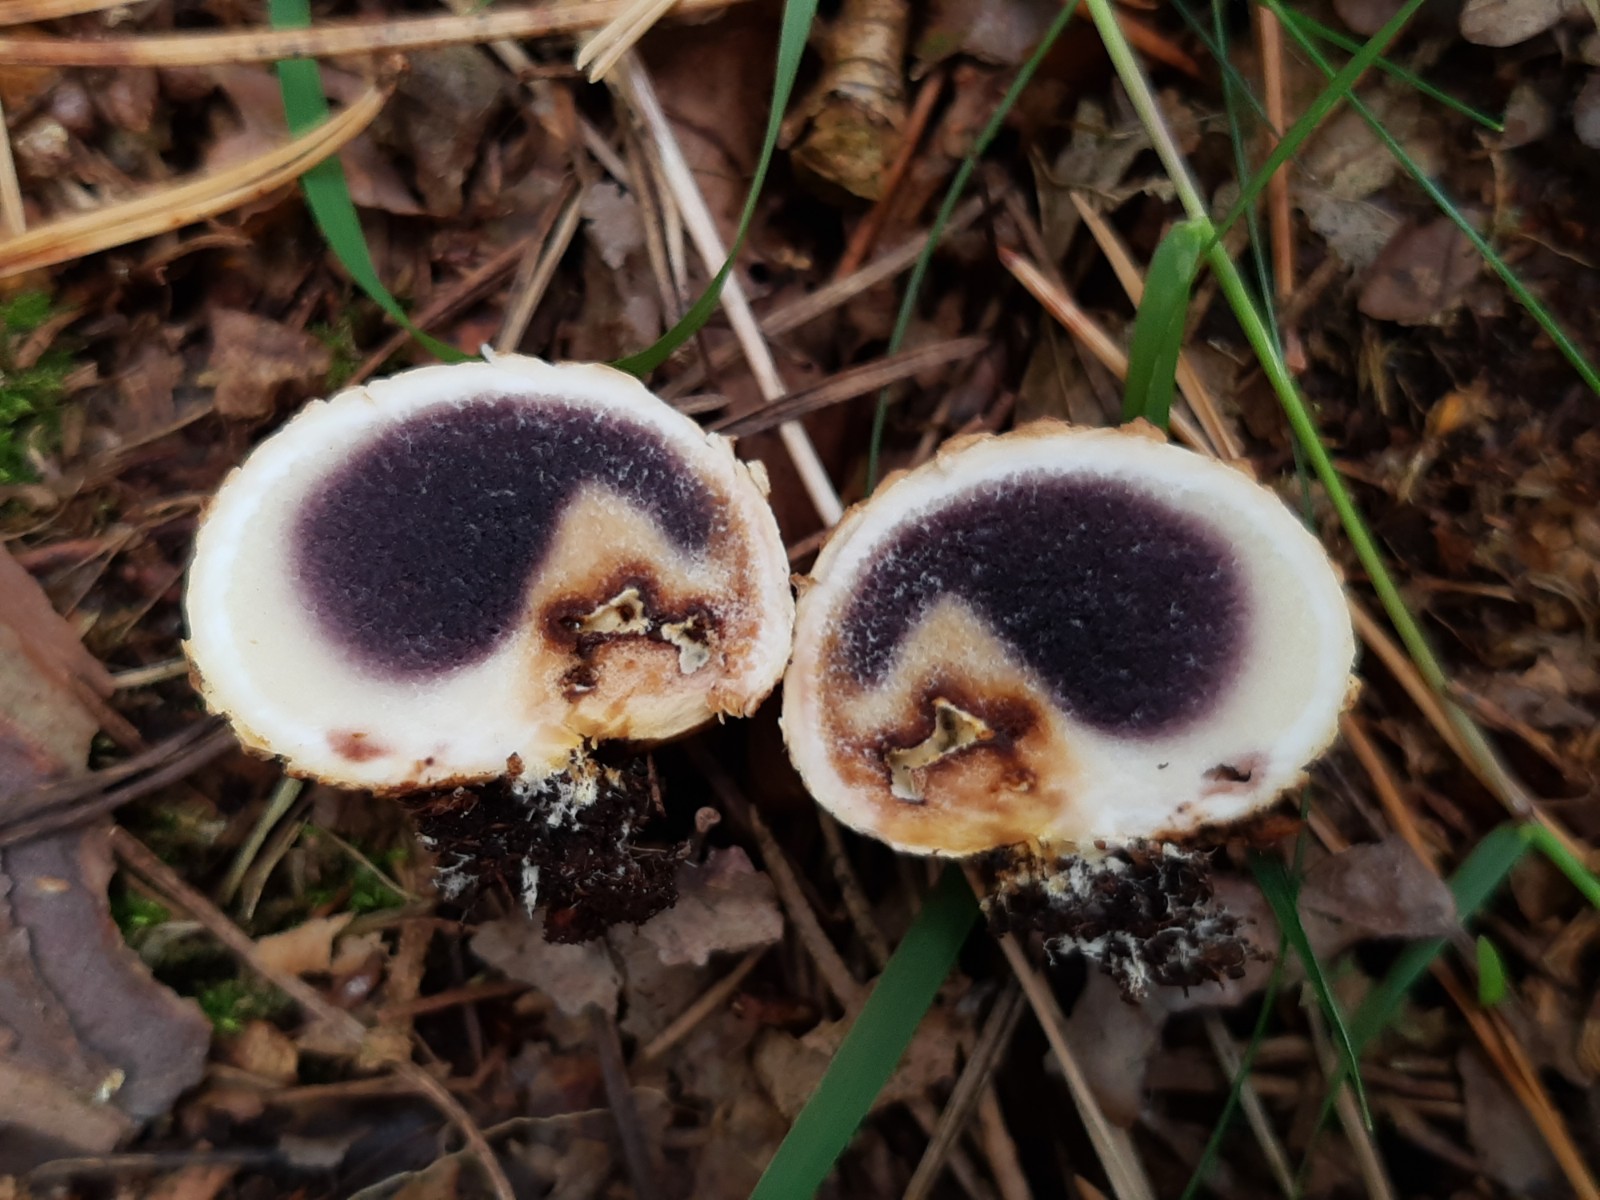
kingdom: Fungi
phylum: Basidiomycota
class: Agaricomycetes
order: Boletales
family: Sclerodermataceae
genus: Scleroderma
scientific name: Scleroderma citrinum
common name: almindelig bruskbold
